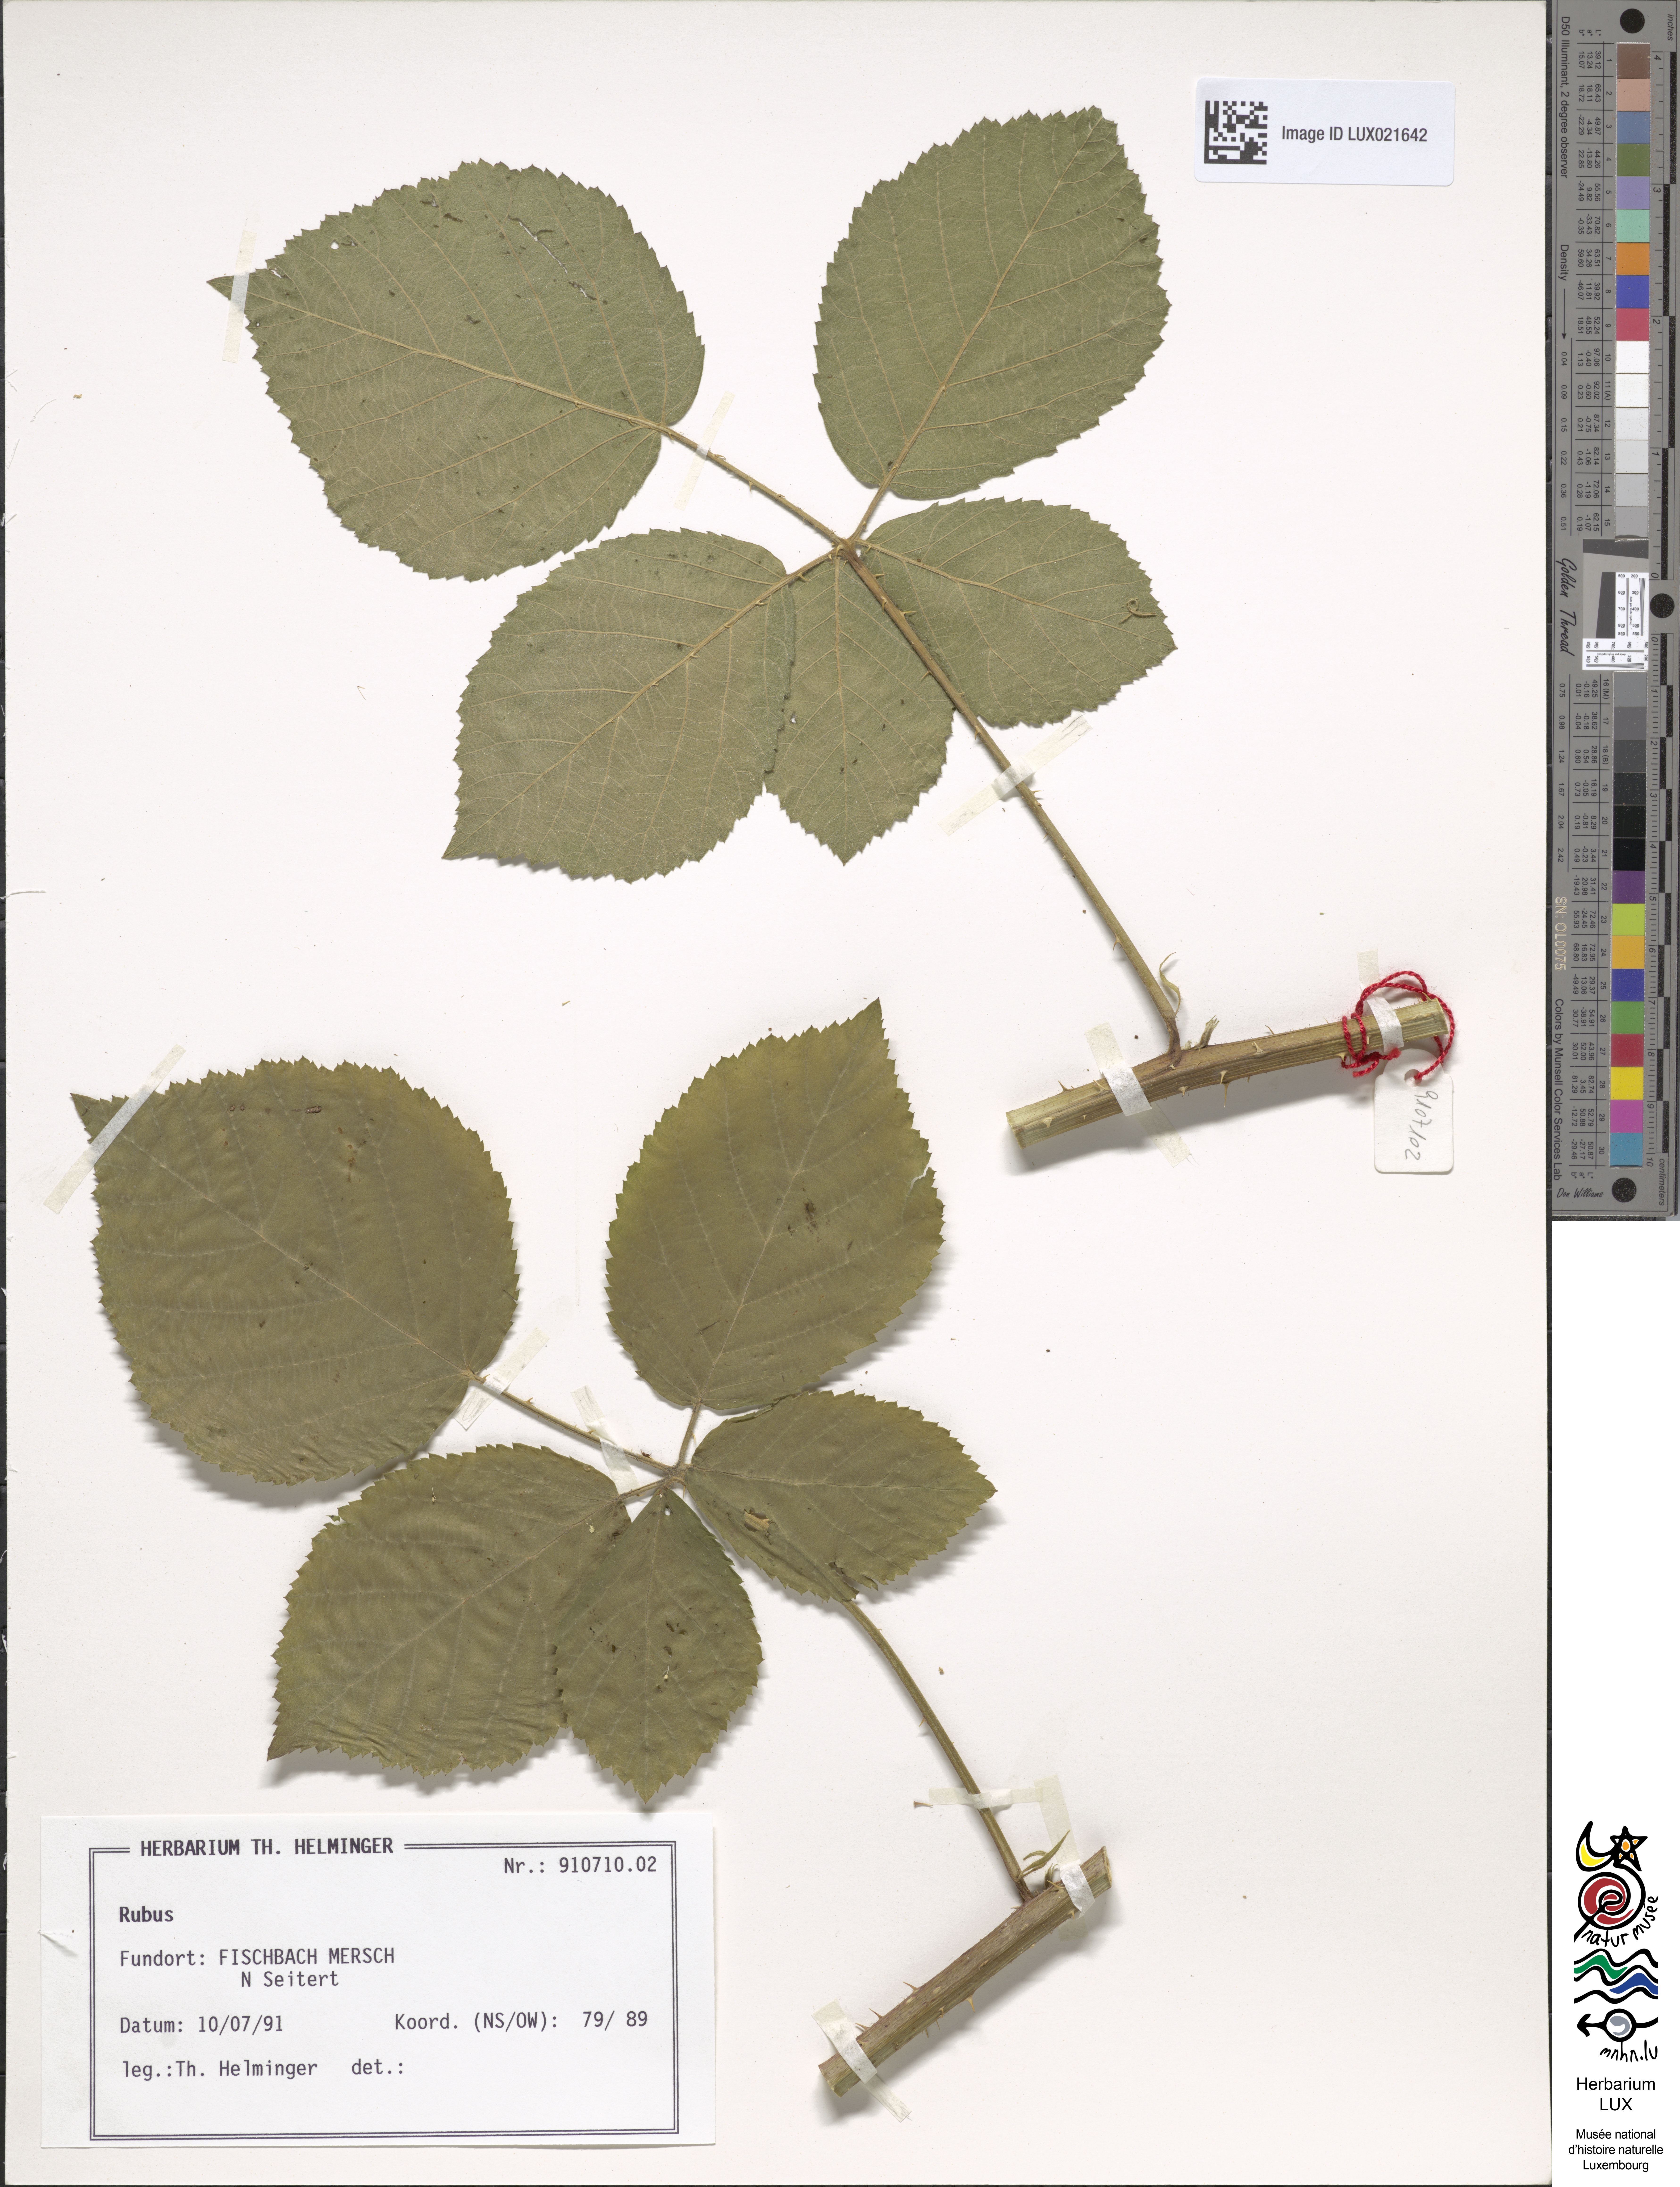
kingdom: Plantae
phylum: Tracheophyta
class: Magnoliopsida
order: Rosales
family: Rosaceae
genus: Rubus
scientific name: Rubus
